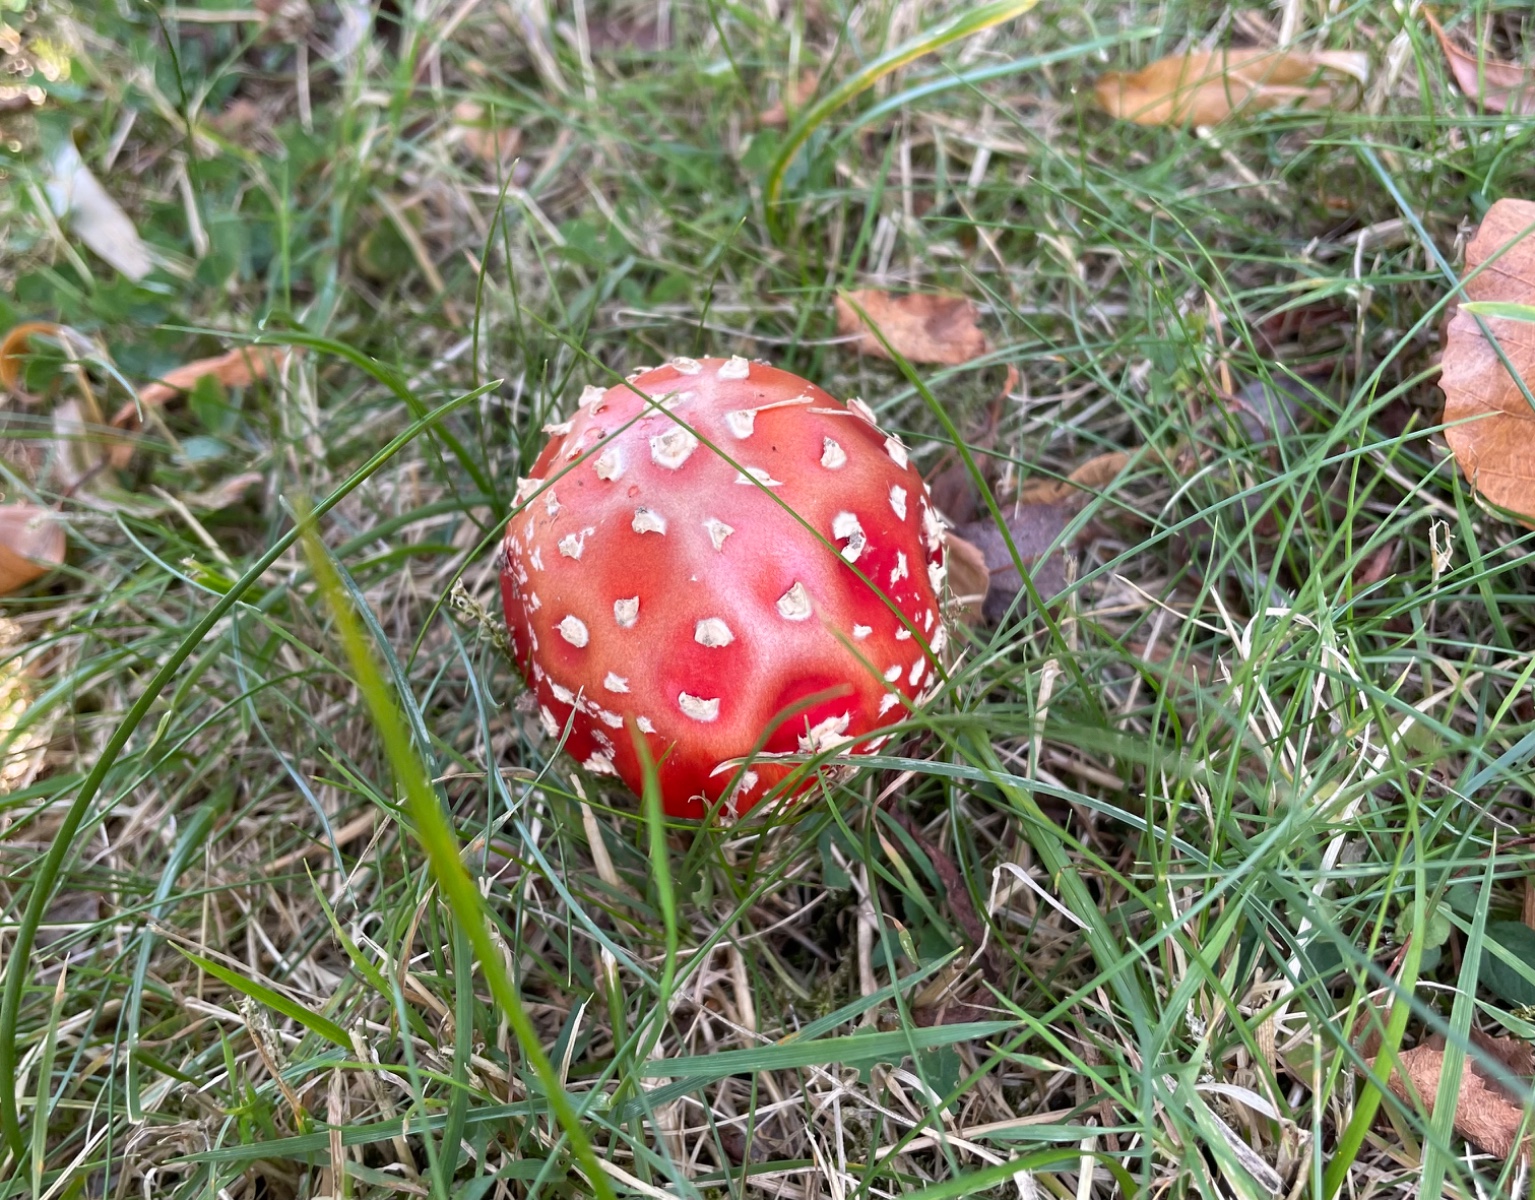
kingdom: Fungi
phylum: Basidiomycota
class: Agaricomycetes
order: Agaricales
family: Amanitaceae
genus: Amanita
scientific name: Amanita muscaria
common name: rød fluesvamp
